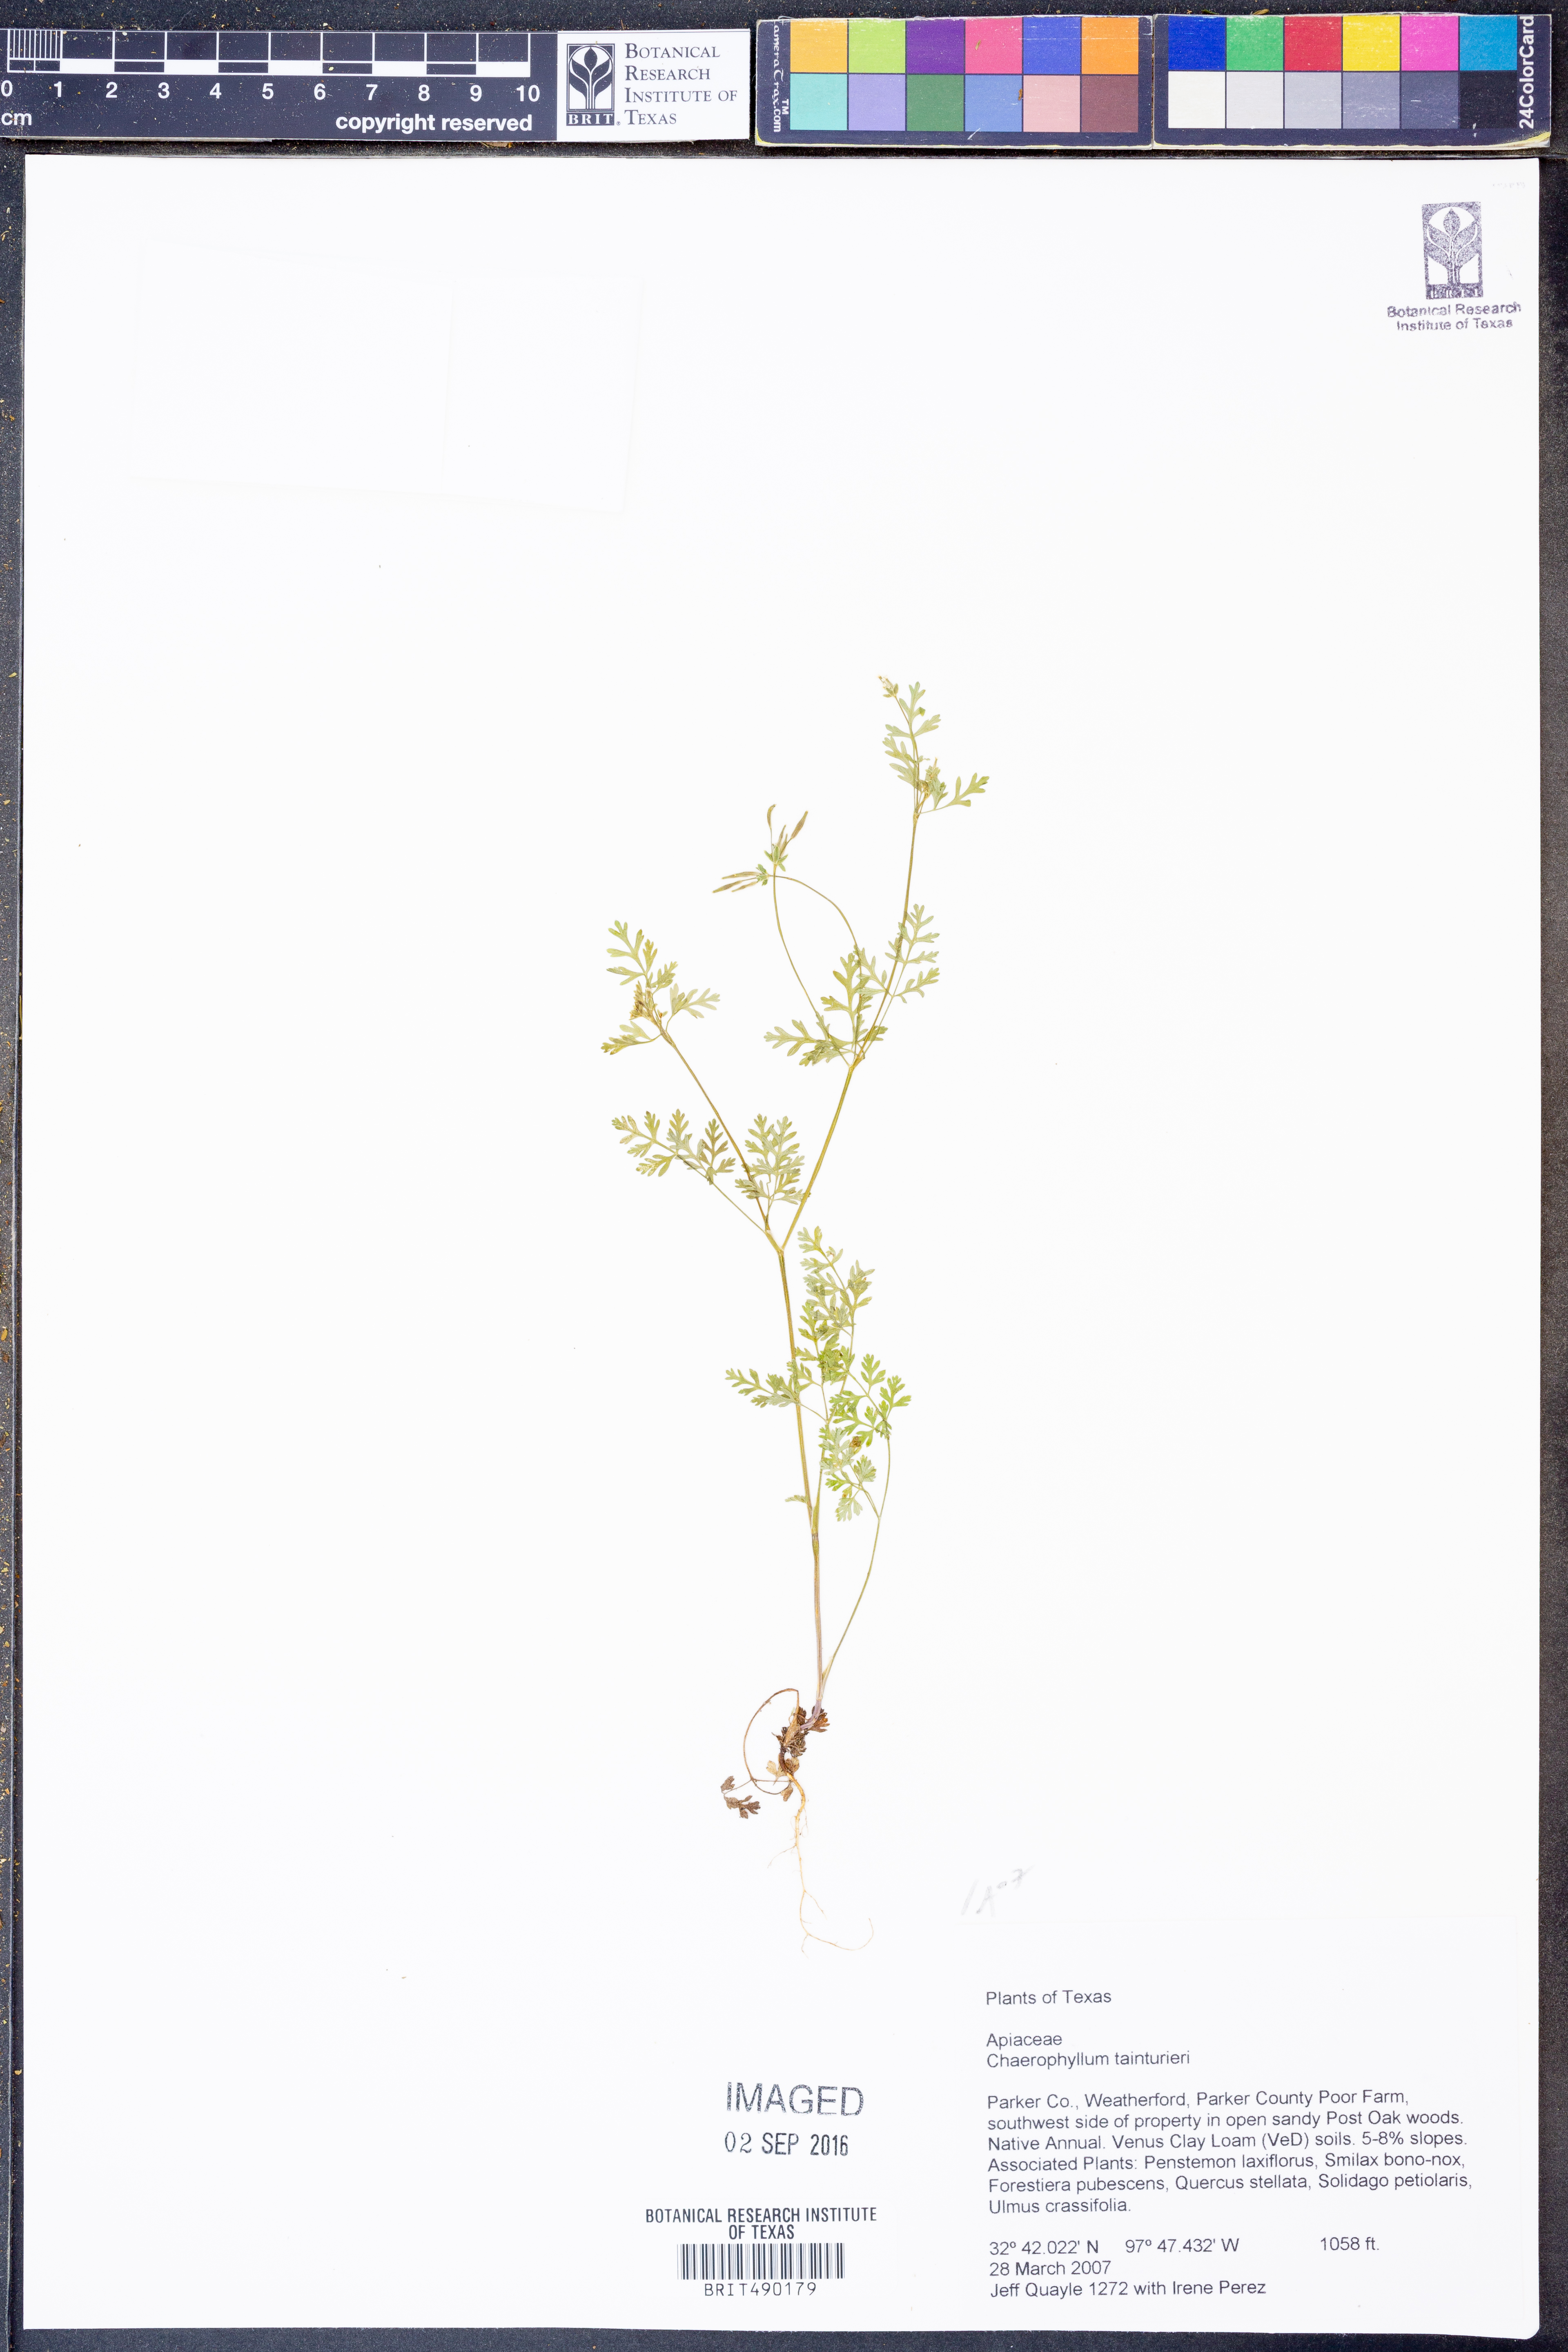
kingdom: Plantae
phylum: Tracheophyta
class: Magnoliopsida
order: Apiales
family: Apiaceae
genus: Chaerophyllum
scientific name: Chaerophyllum tainturieri
